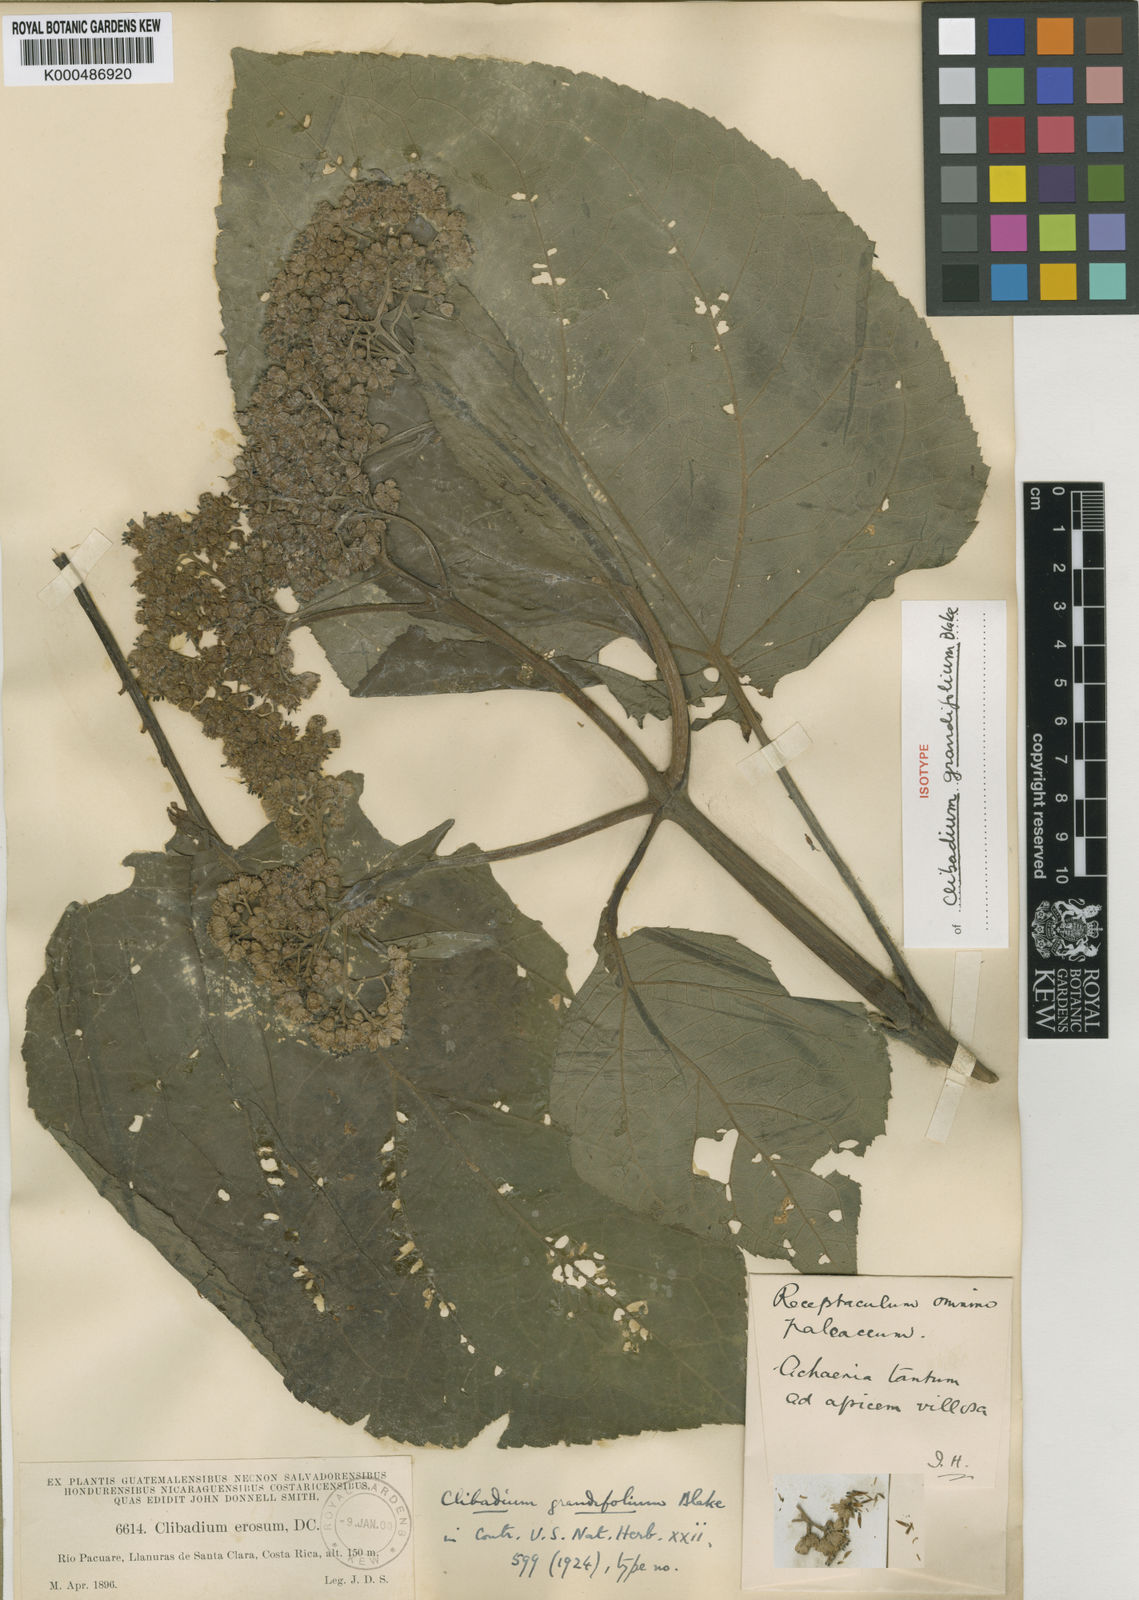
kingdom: Plantae
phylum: Tracheophyta
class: Magnoliopsida
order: Asterales
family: Asteraceae
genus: Clibadium
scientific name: Clibadium grandifolium
